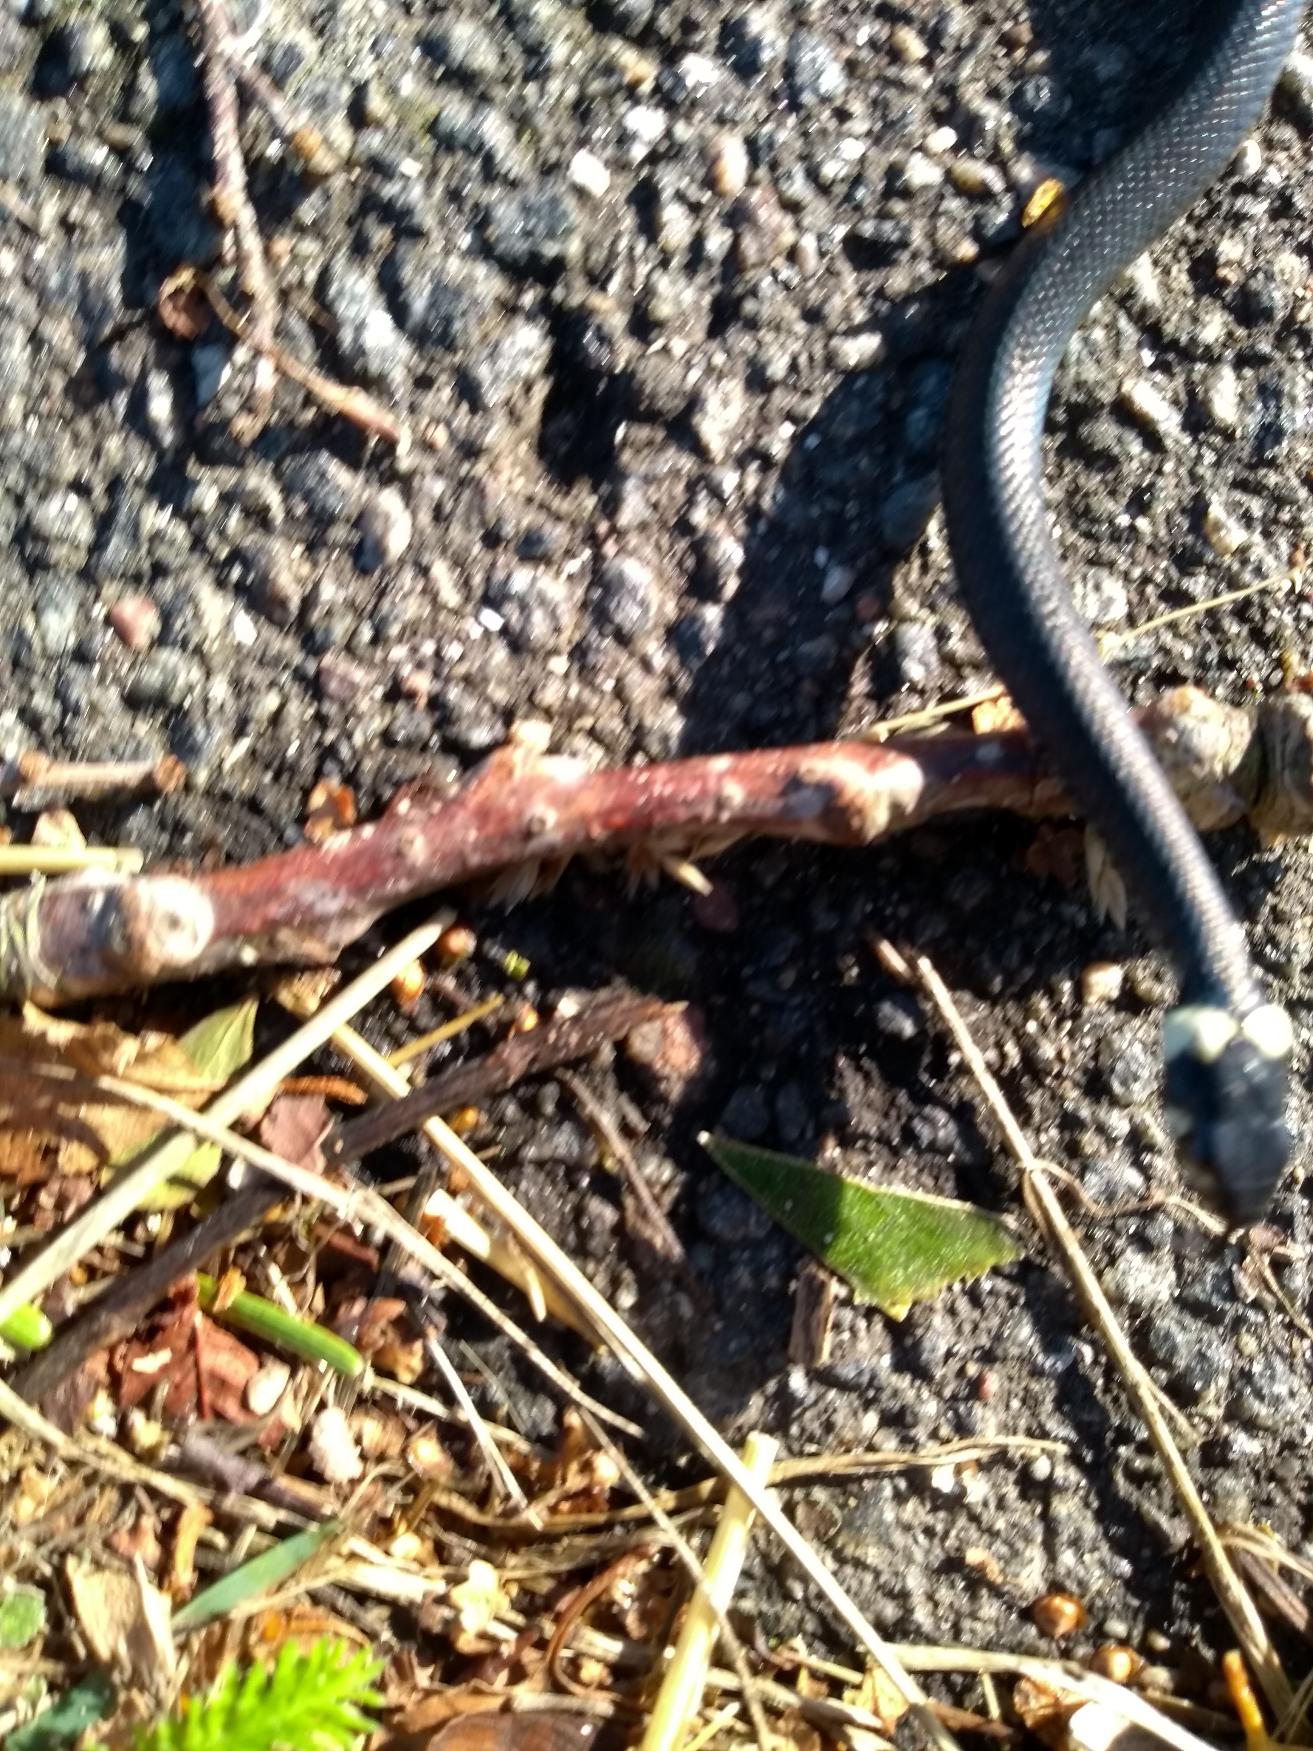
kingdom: Animalia
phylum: Chordata
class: Squamata
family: Colubridae
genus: Natrix
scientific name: Natrix natrix
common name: Snog
